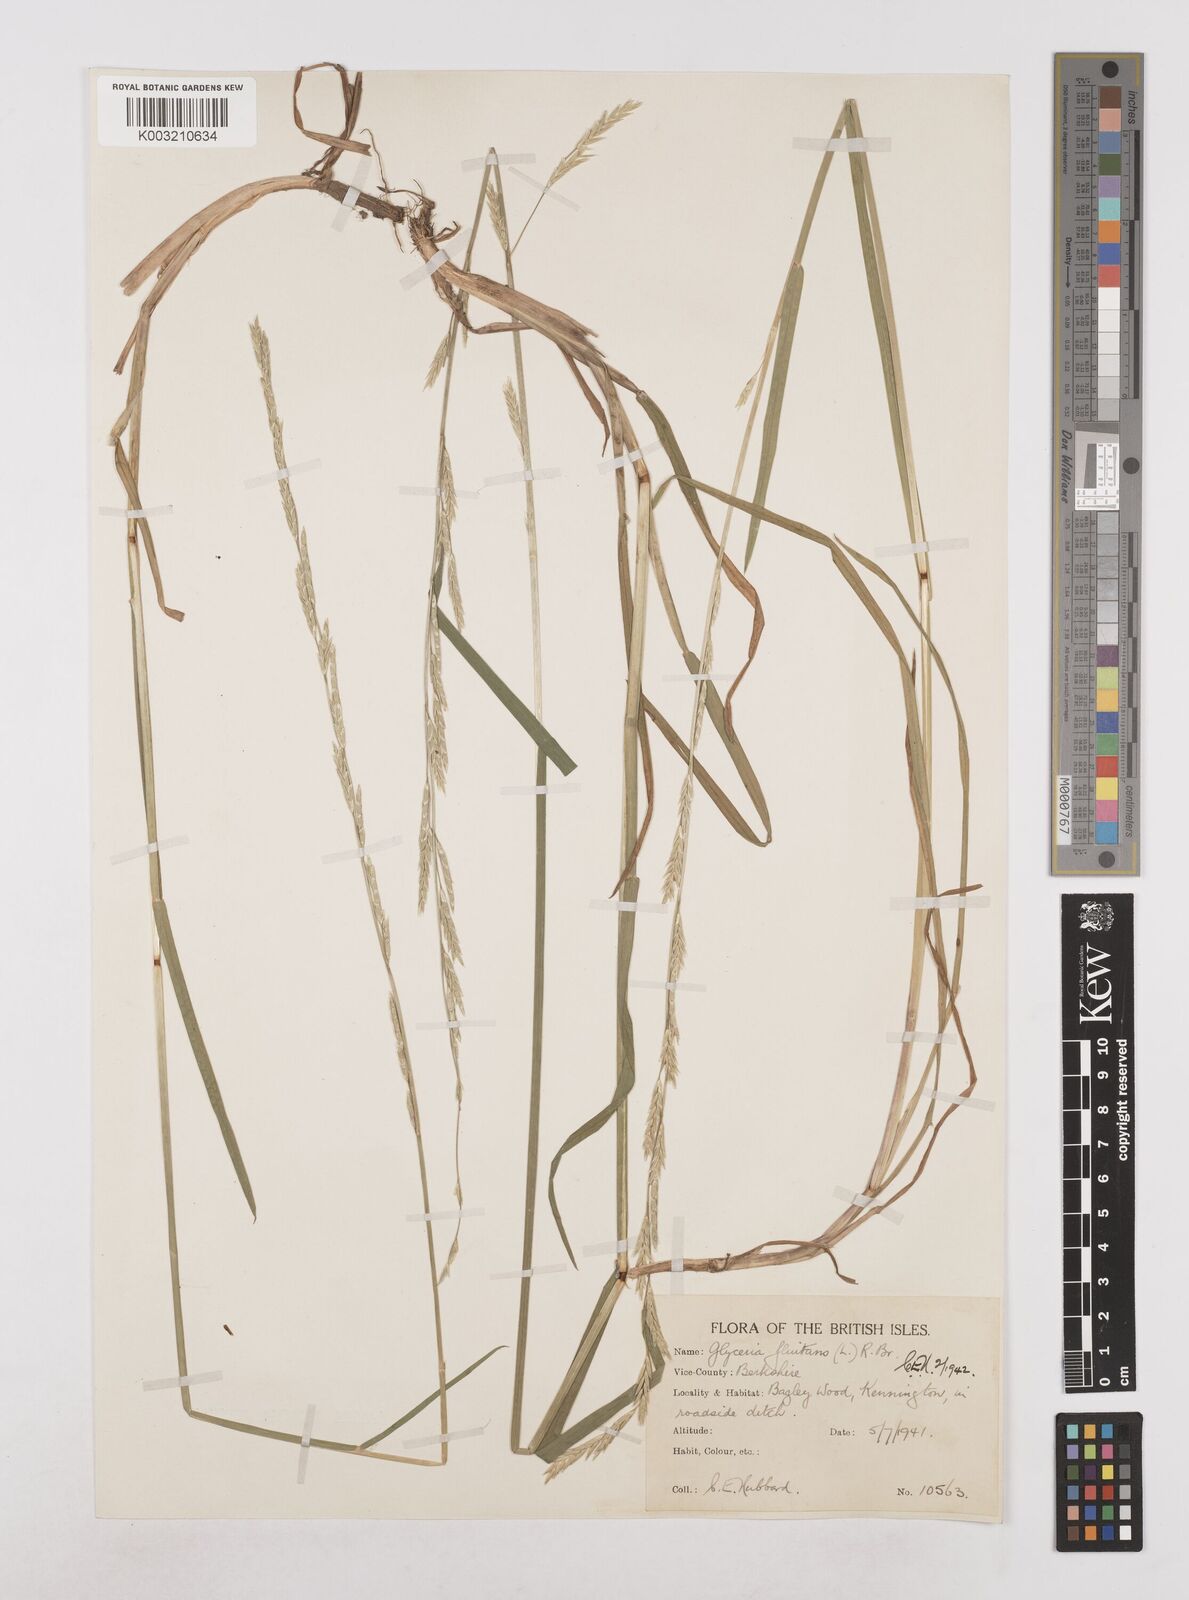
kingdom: Plantae
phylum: Tracheophyta
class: Liliopsida
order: Poales
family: Poaceae
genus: Glyceria
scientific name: Glyceria fluitans
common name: Floating sweet-grass
